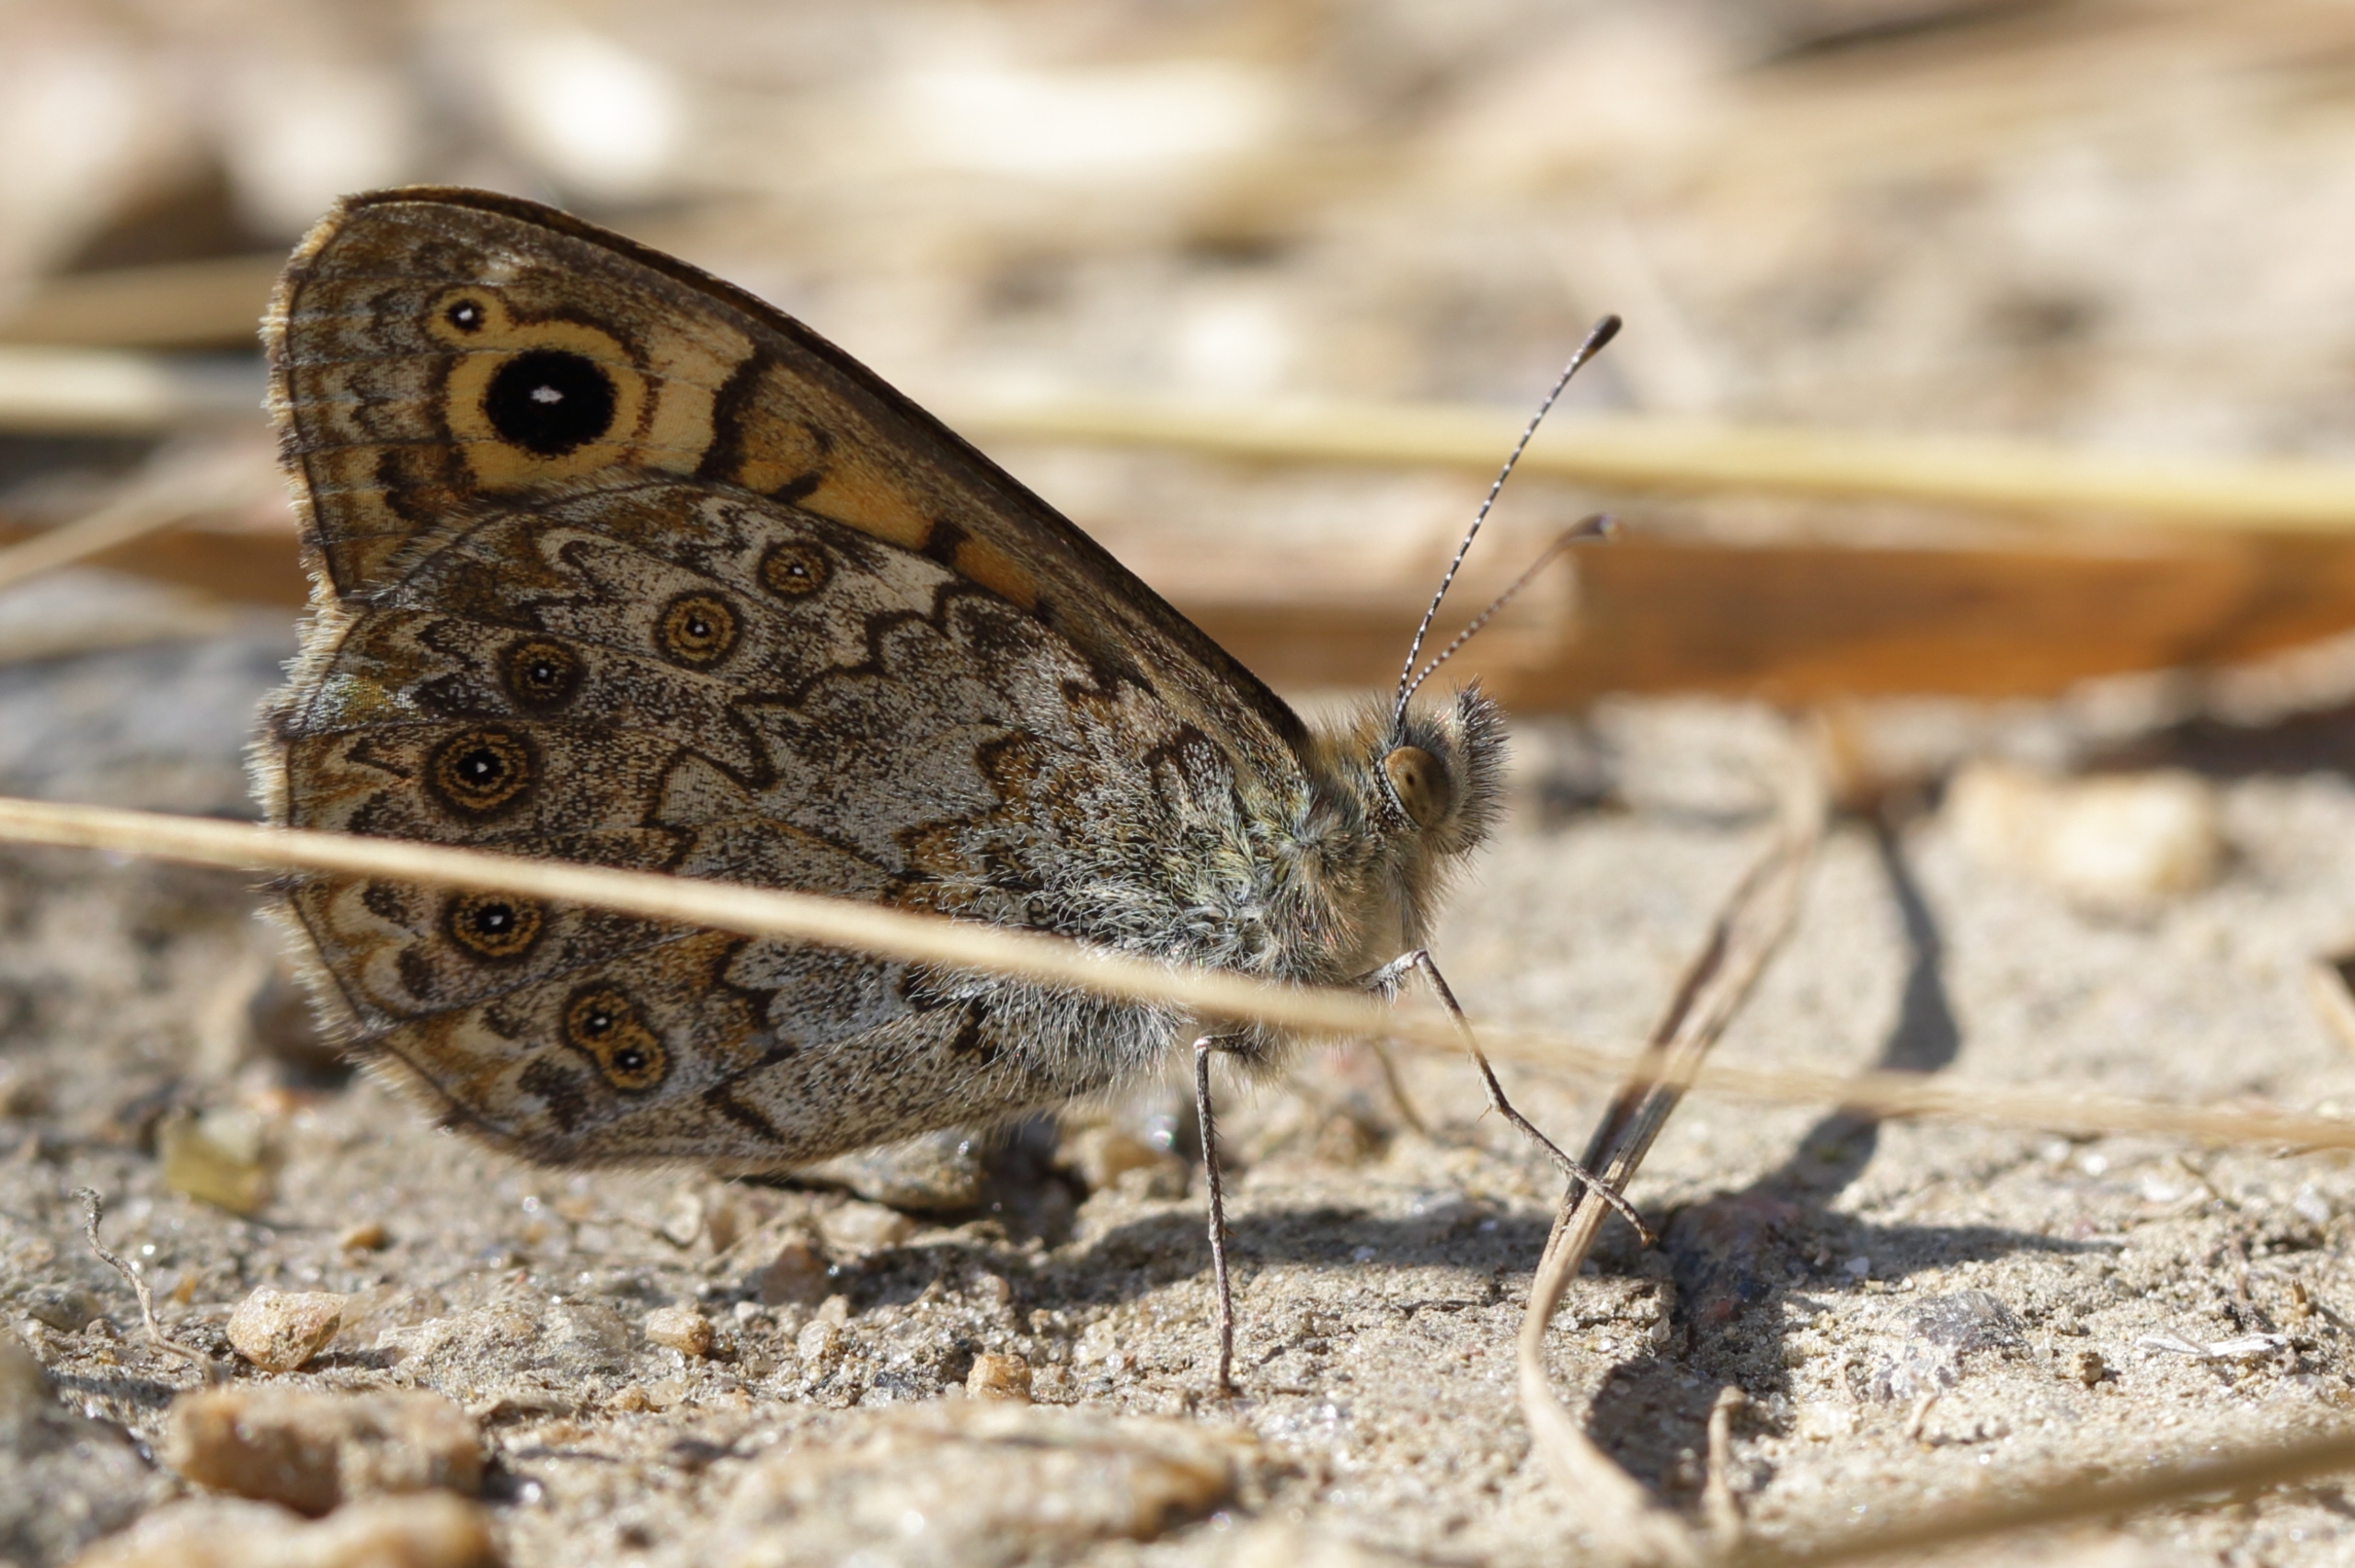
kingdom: Animalia
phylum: Arthropoda
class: Insecta
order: Lepidoptera
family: Nymphalidae
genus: Pararge
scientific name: Pararge Lasiommata megera
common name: Vejrandøje
